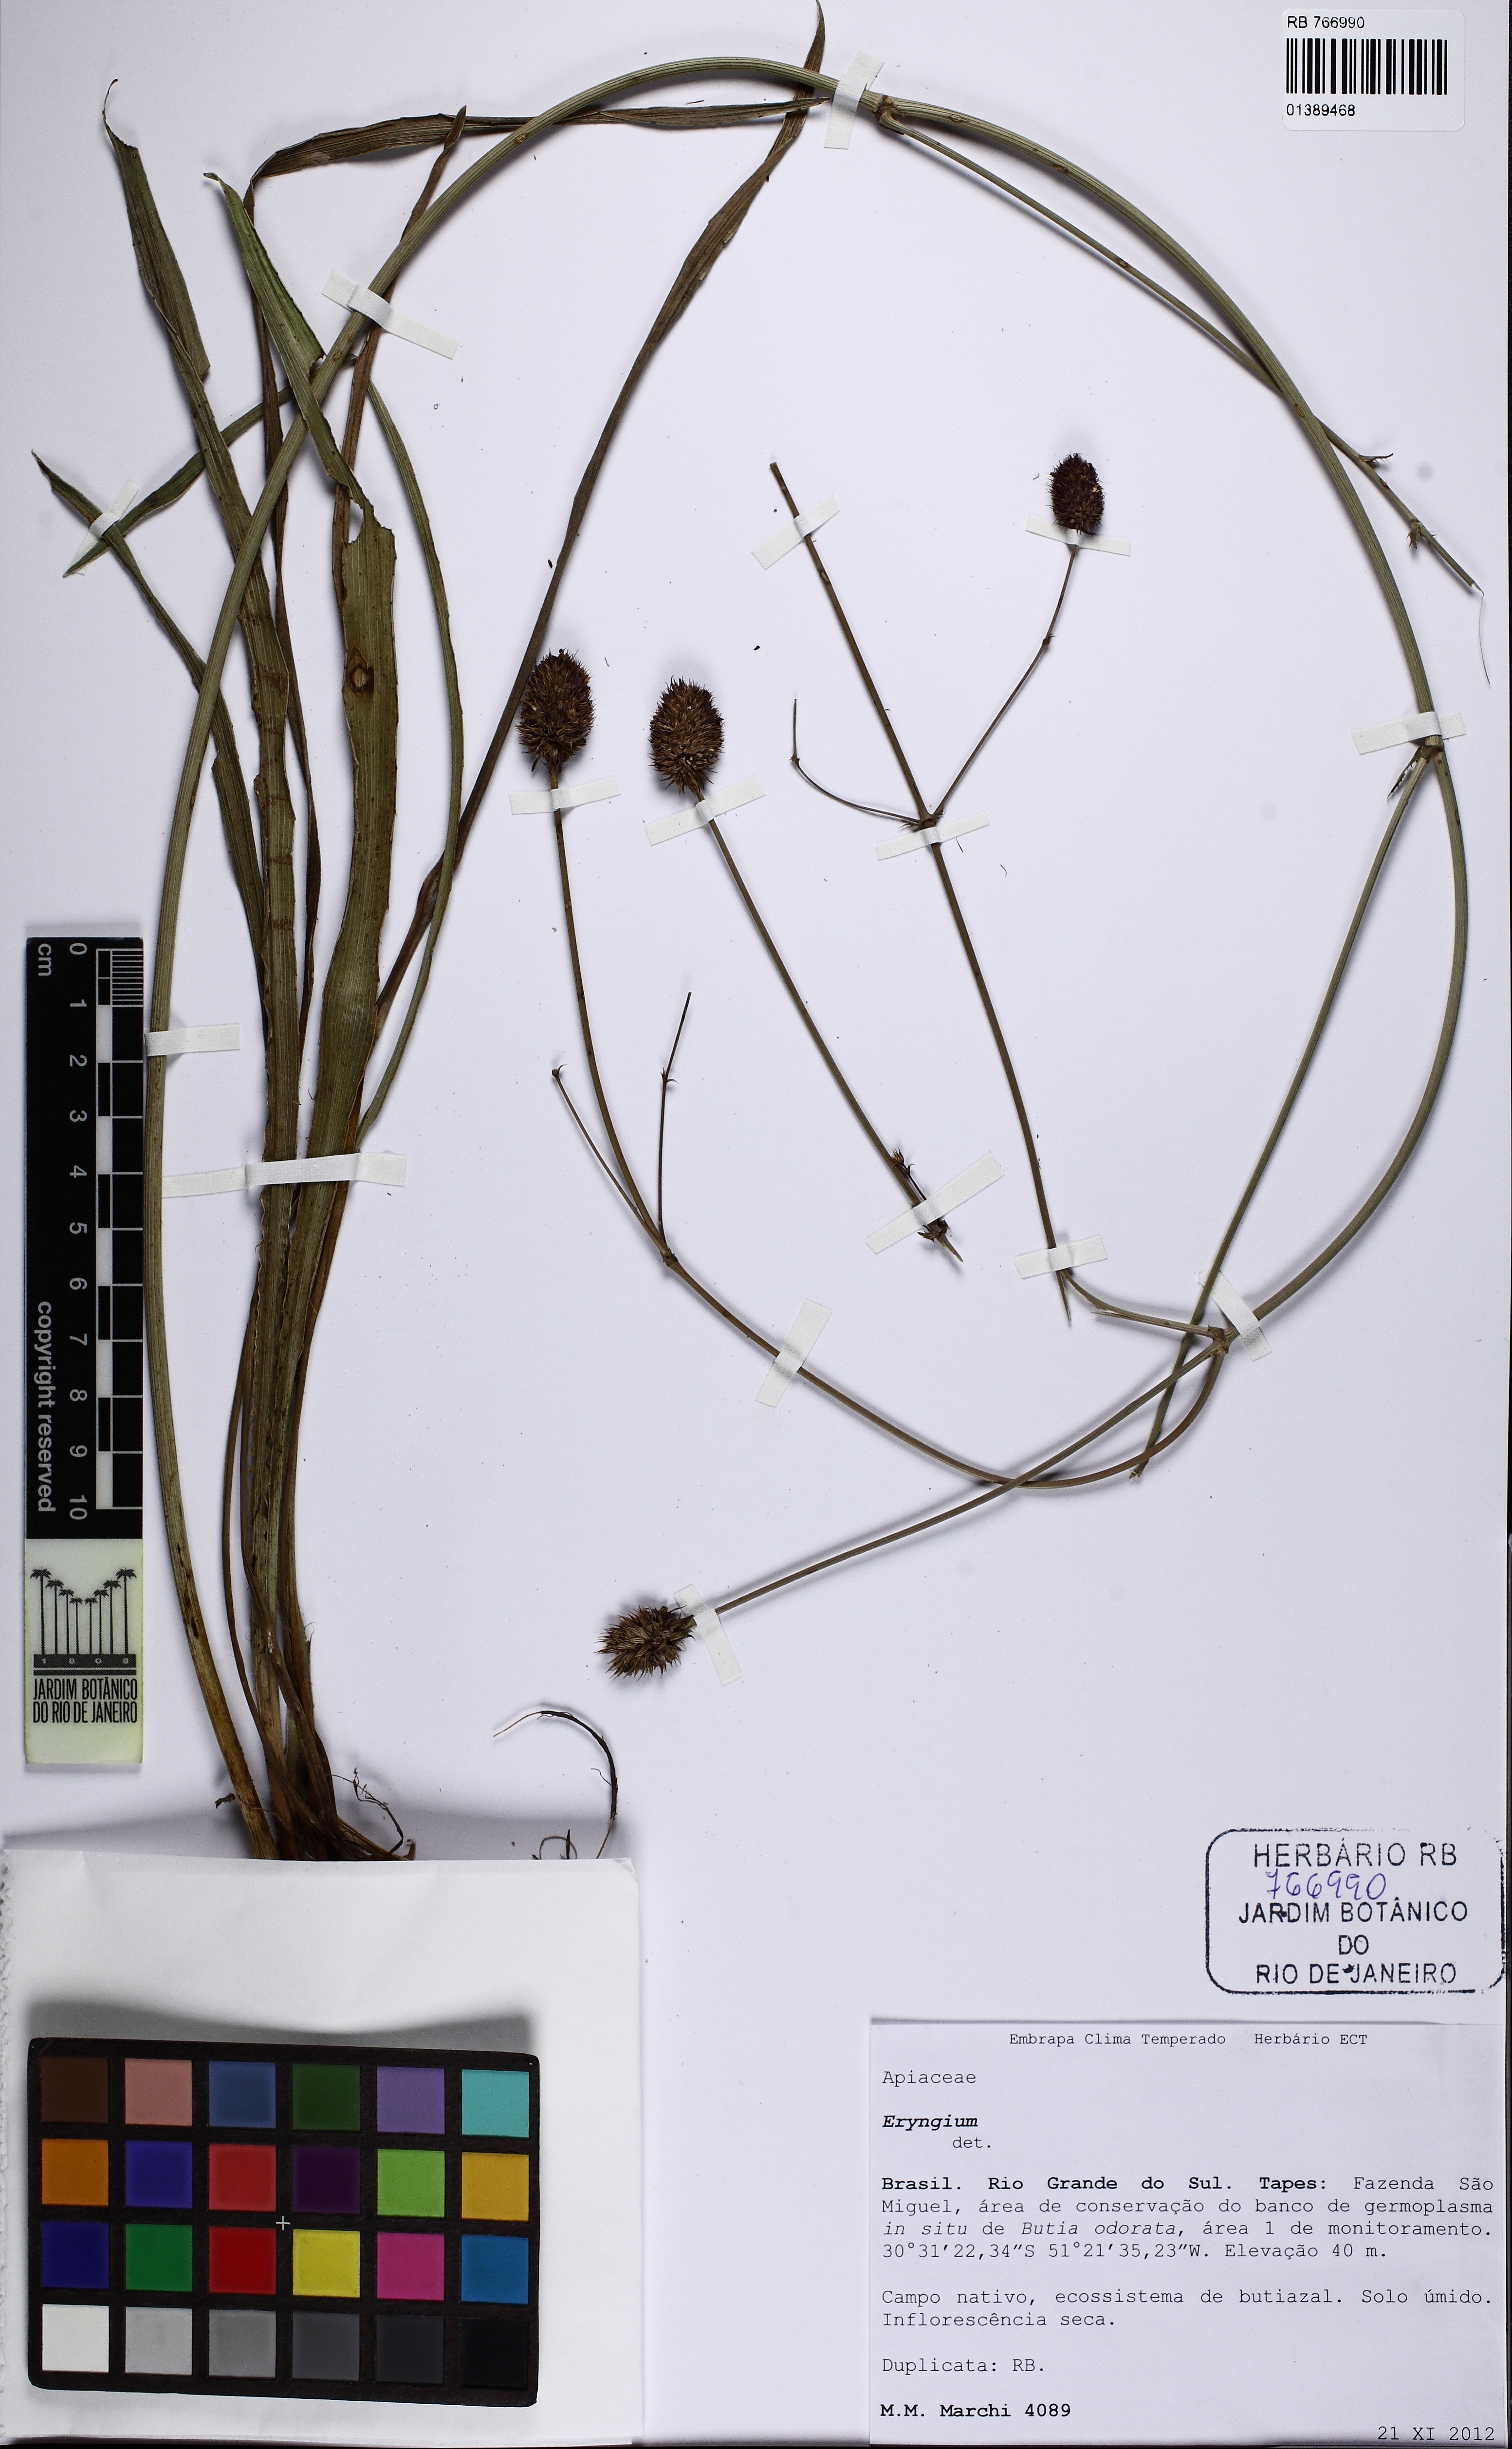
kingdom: Plantae
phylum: Tracheophyta
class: Magnoliopsida
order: Apiales
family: Apiaceae
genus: Eryngium
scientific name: Eryngium
